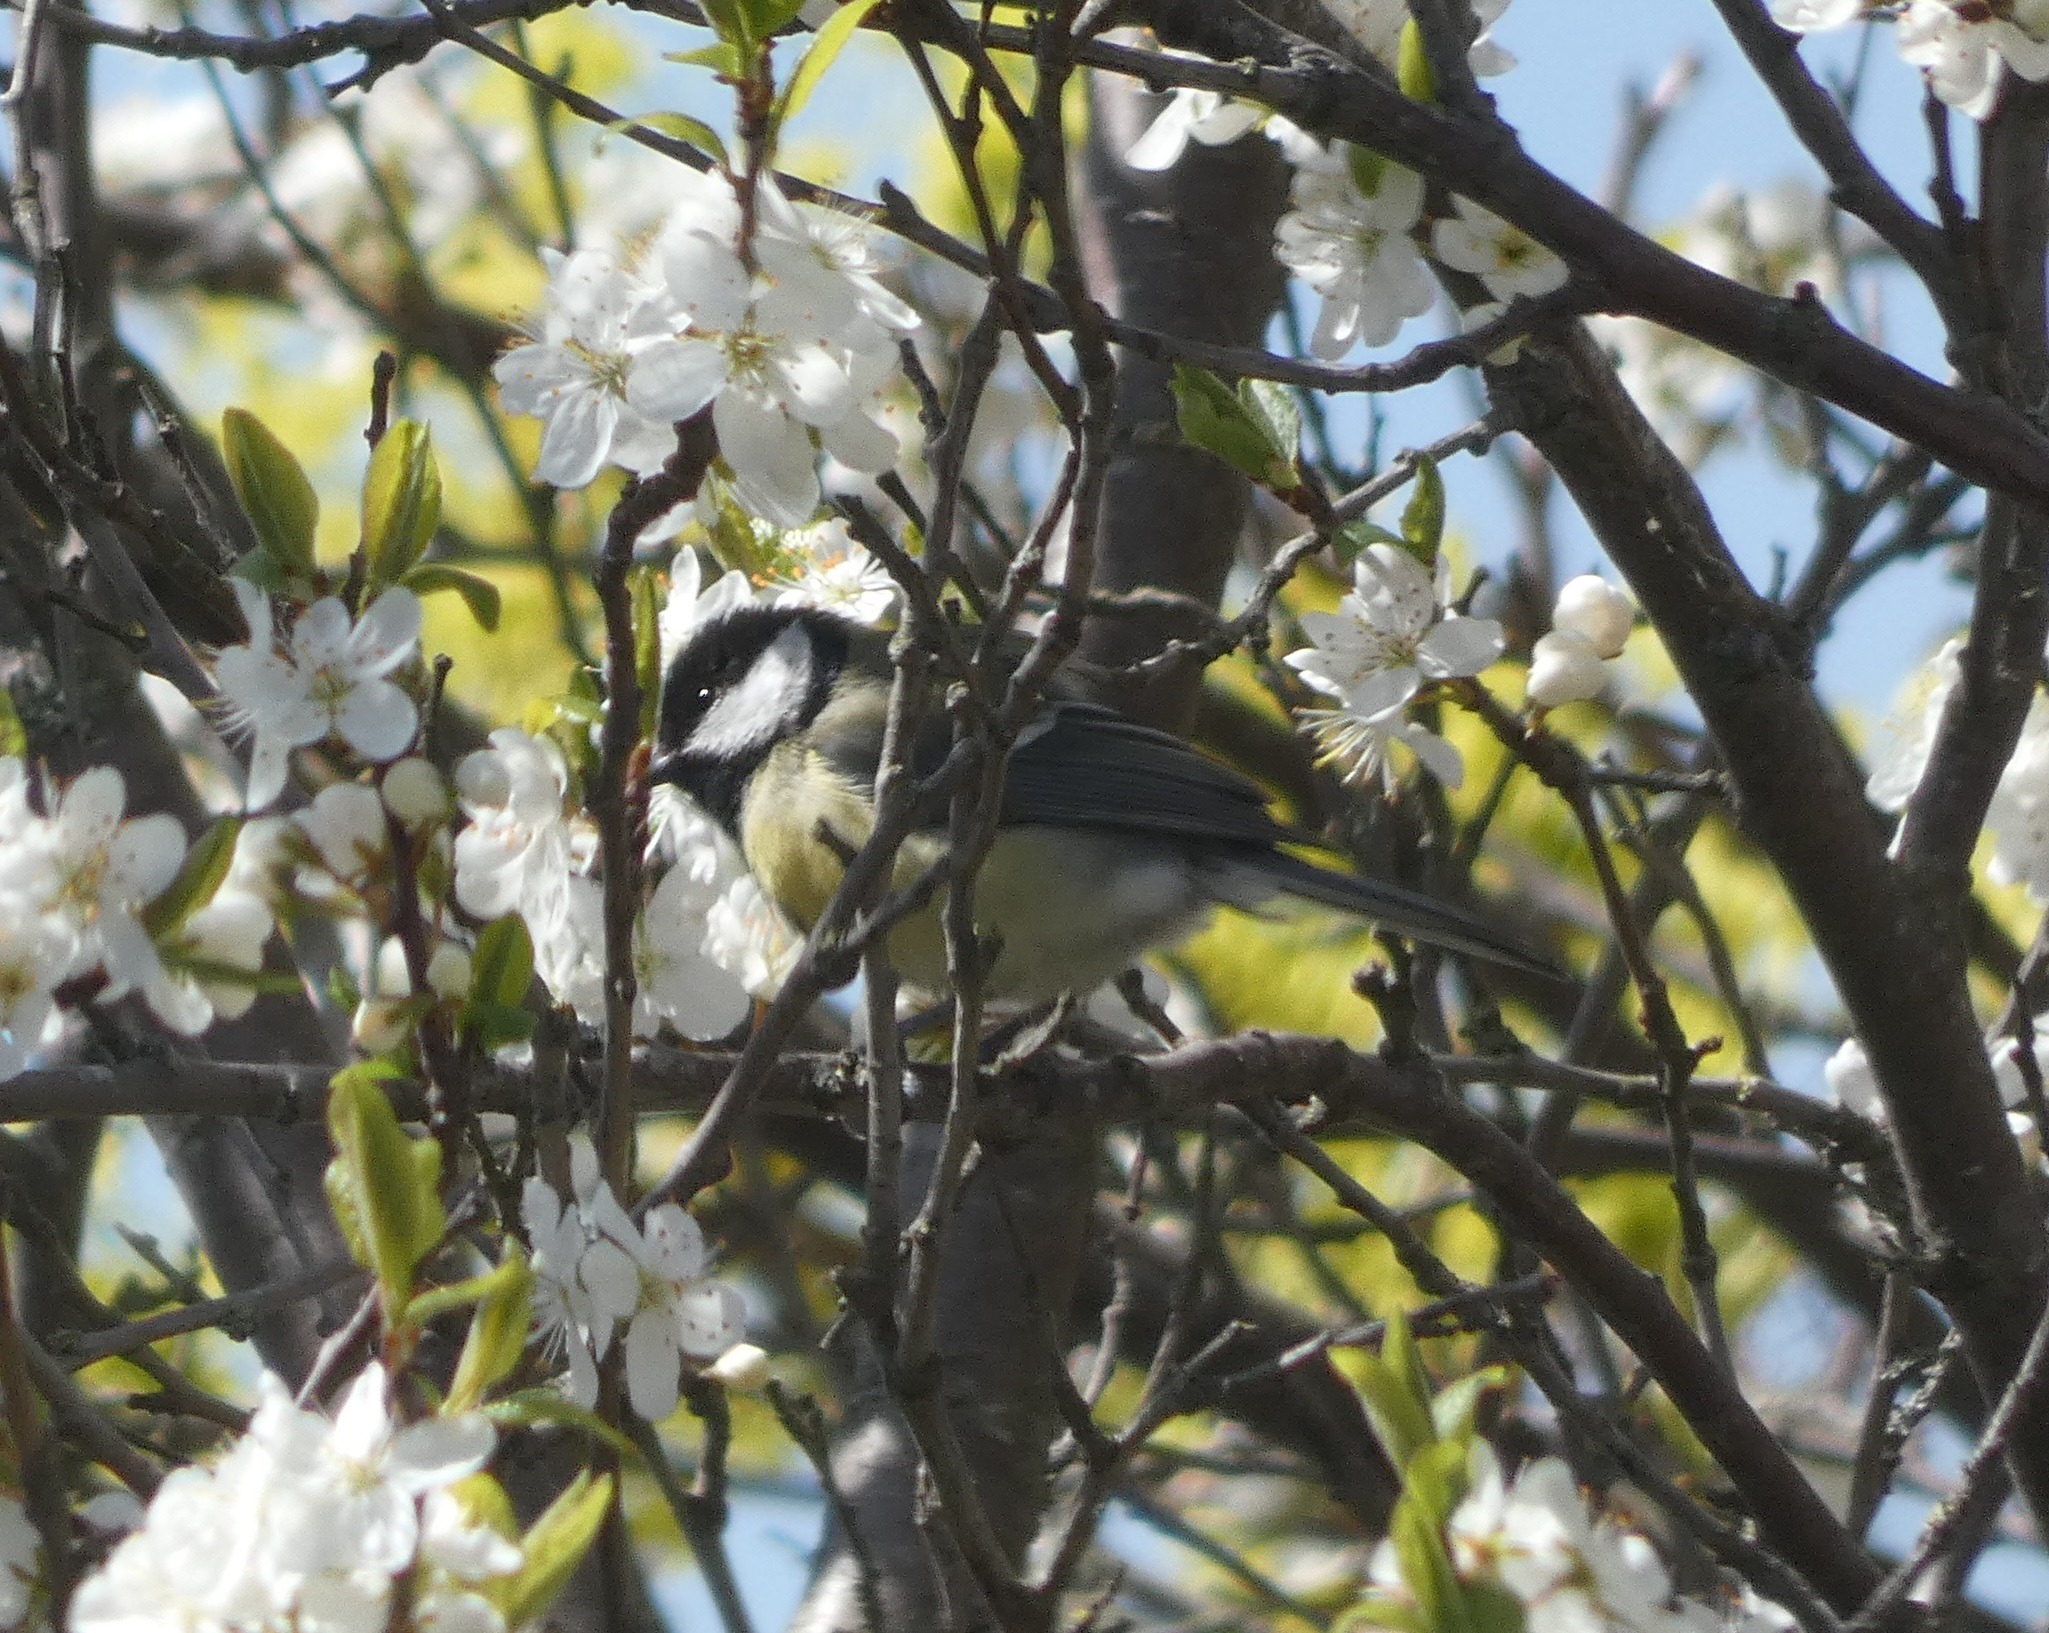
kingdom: Animalia
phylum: Chordata
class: Aves
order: Passeriformes
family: Paridae
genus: Parus
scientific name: Parus major
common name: Musvit
